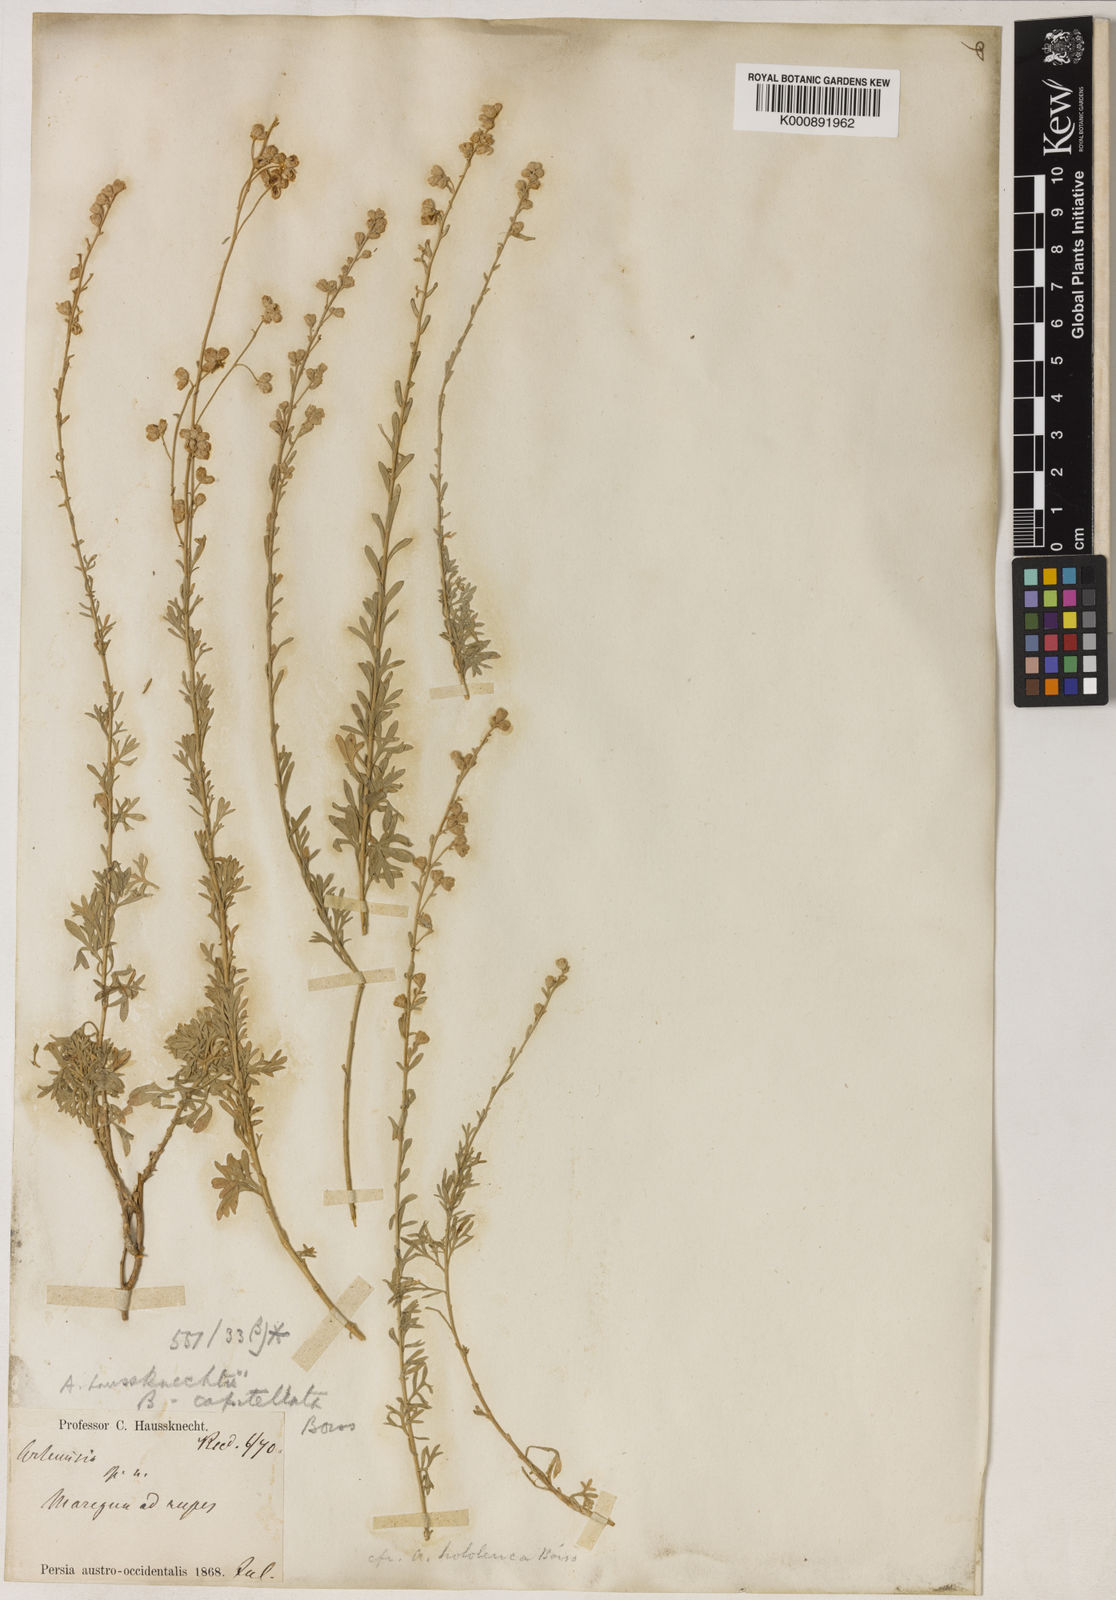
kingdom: Plantae
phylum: Tracheophyta
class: Magnoliopsida
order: Asterales
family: Asteraceae
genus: Artemisia
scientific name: Artemisia haussknechtii
